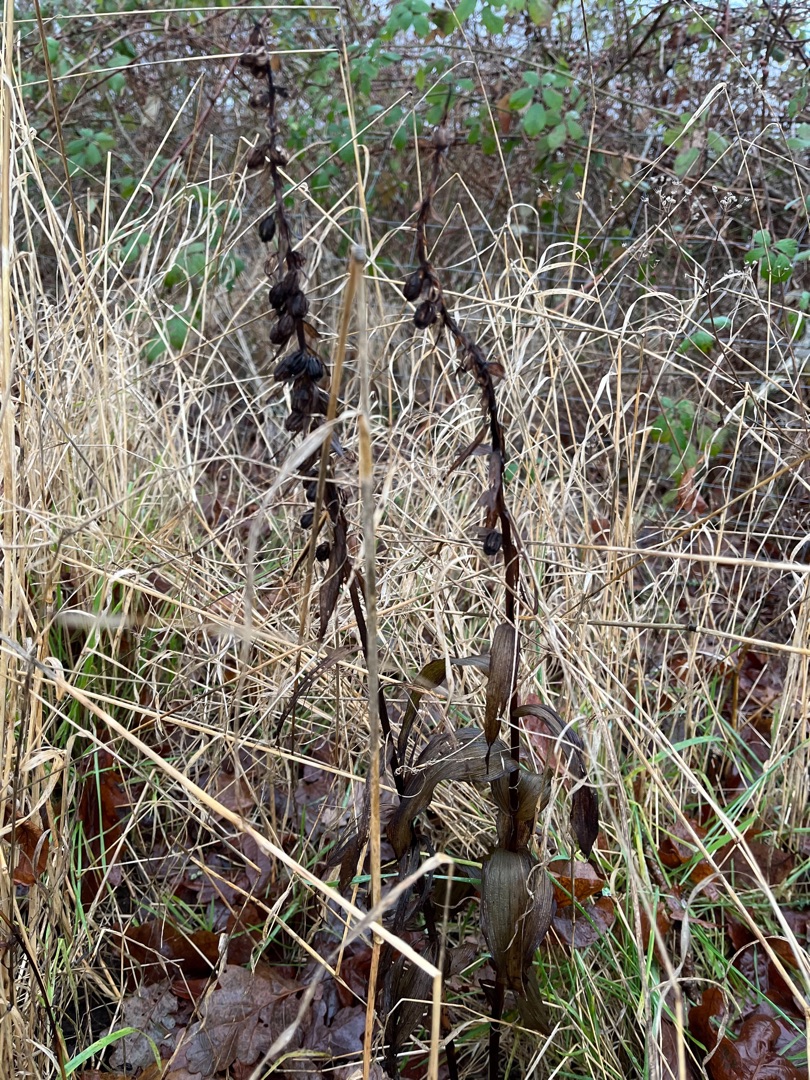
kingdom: Plantae
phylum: Tracheophyta
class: Liliopsida
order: Asparagales
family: Orchidaceae
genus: Epipactis
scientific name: Epipactis helleborine
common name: Skov-hullæbe
